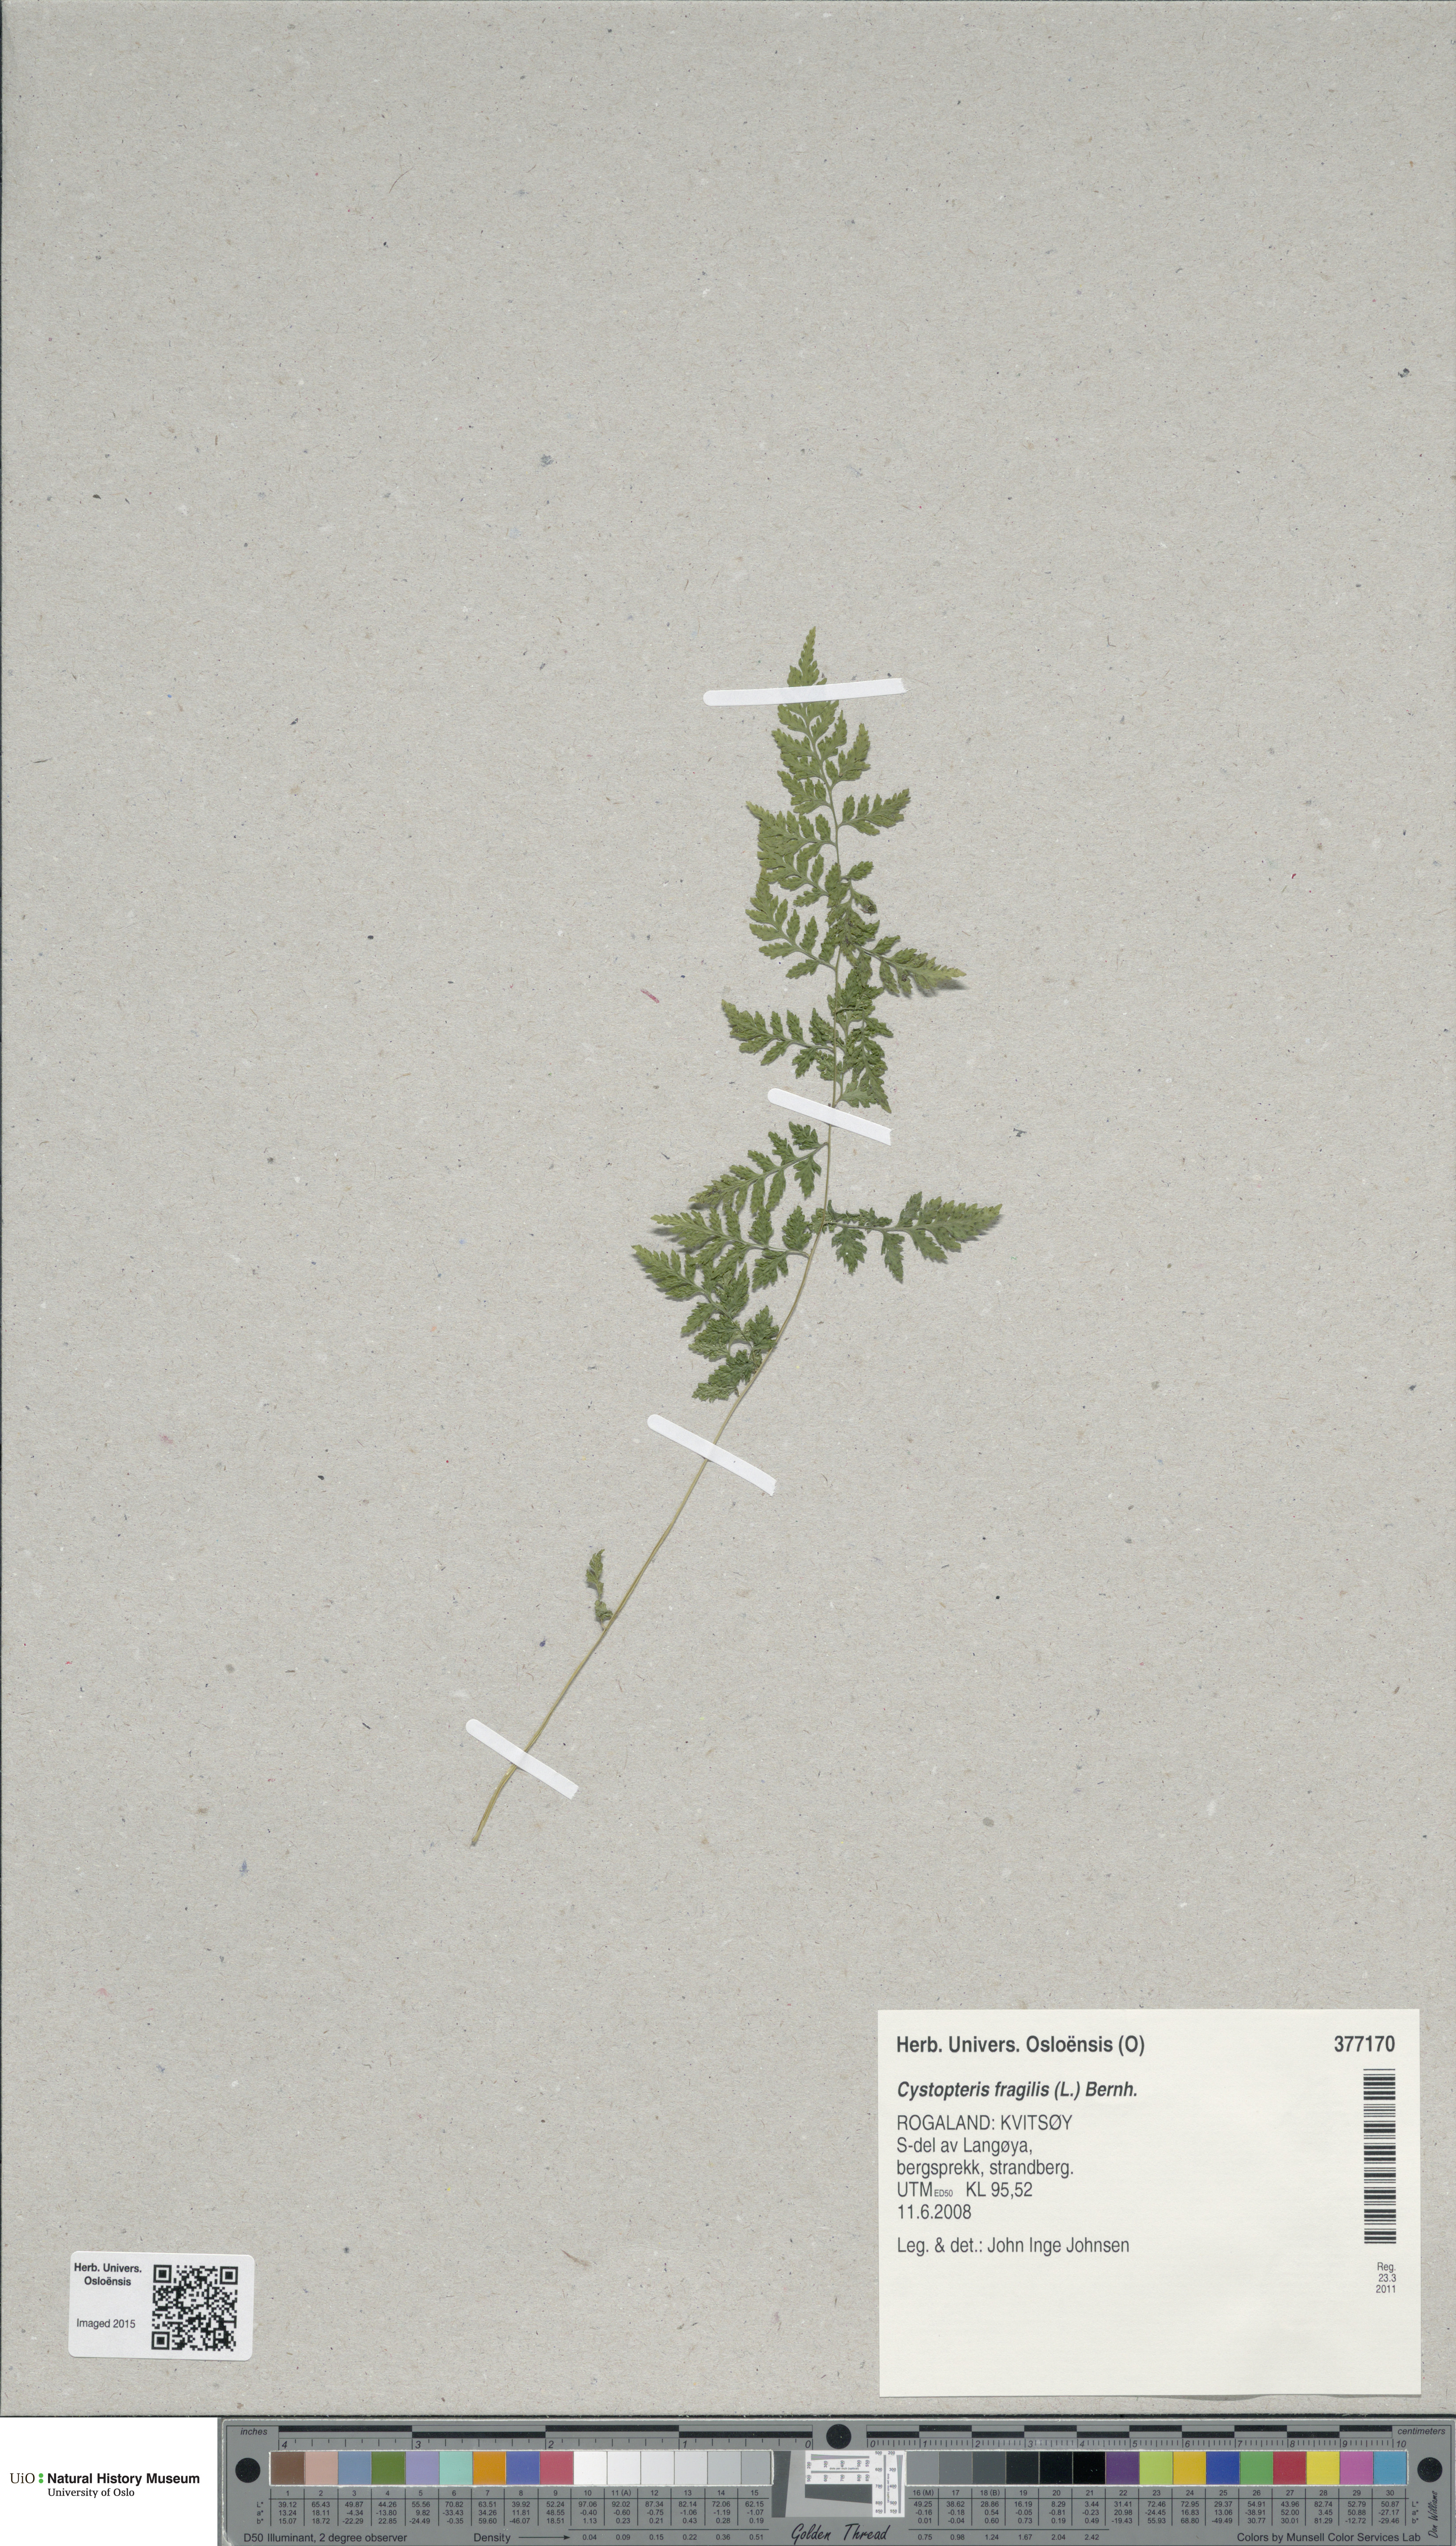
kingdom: Plantae
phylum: Tracheophyta
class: Polypodiopsida
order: Polypodiales
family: Cystopteridaceae
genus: Cystopteris
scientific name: Cystopteris fragilis
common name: Brittle bladder fern
